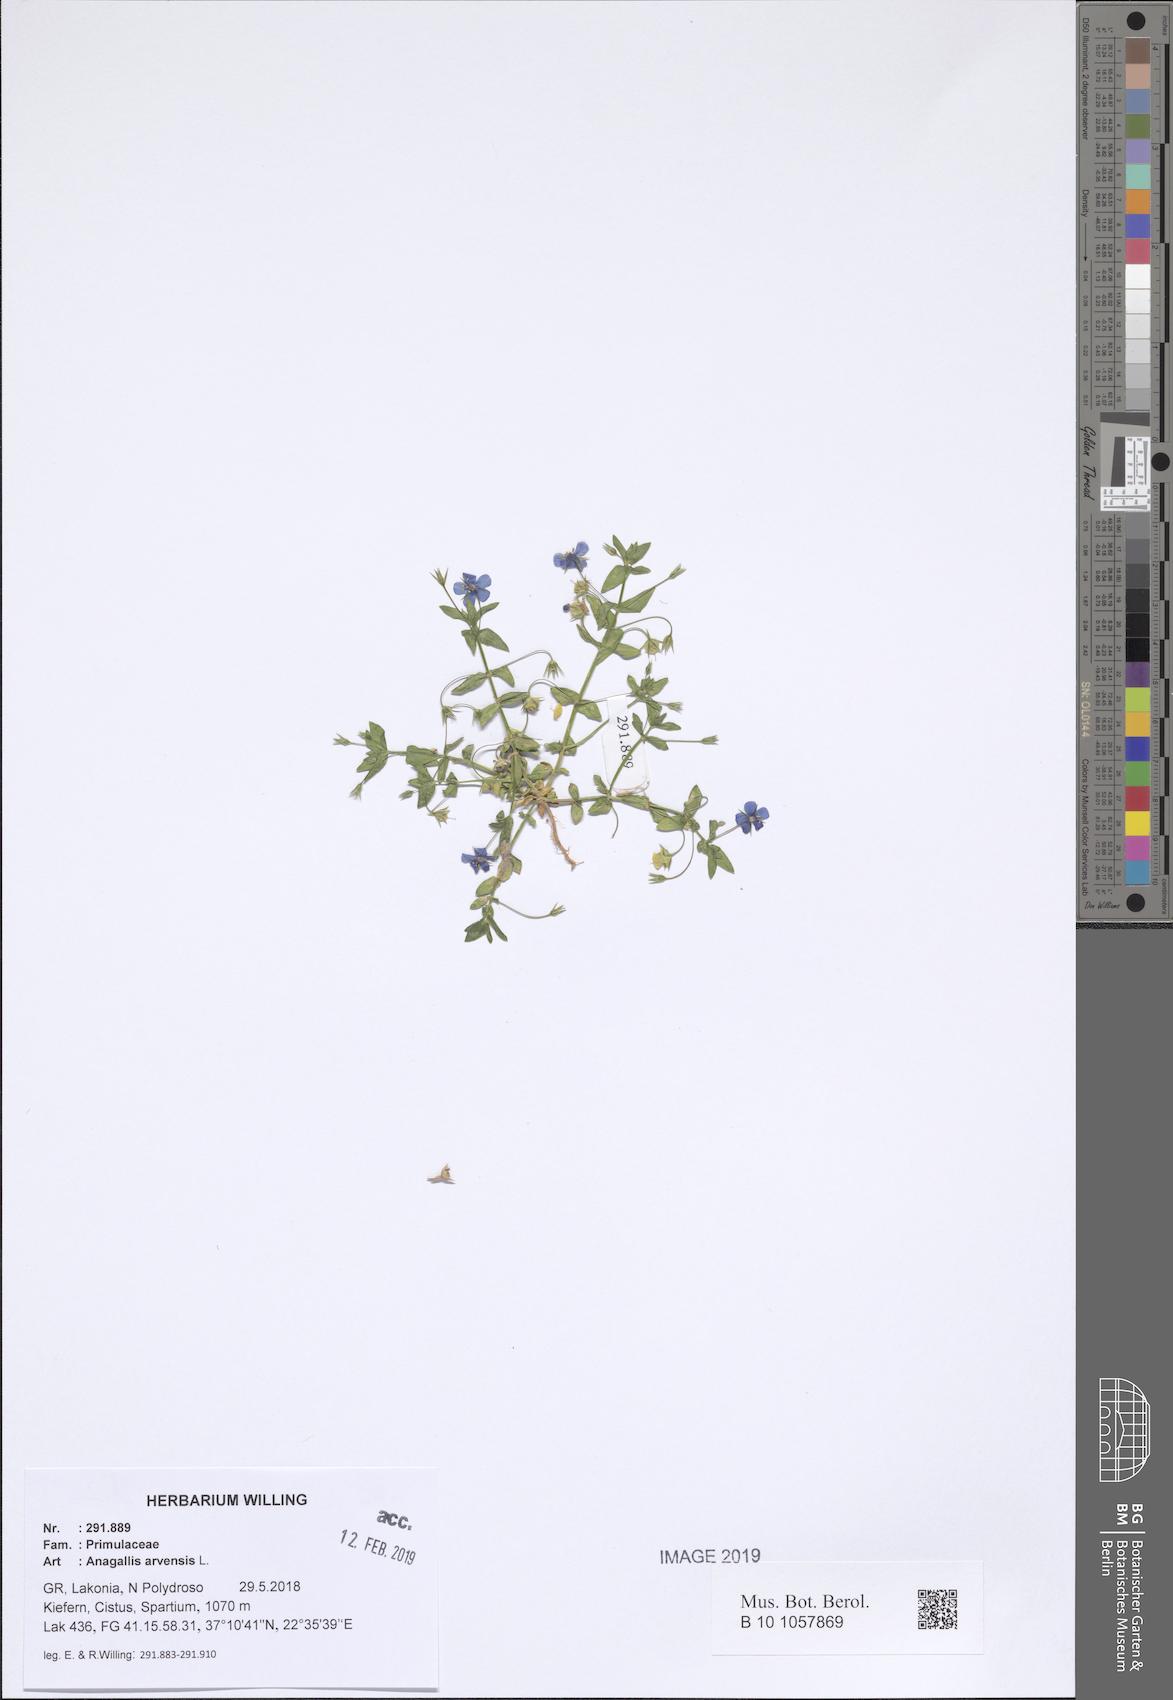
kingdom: Plantae
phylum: Tracheophyta
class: Magnoliopsida
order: Ericales
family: Primulaceae
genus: Lysimachia
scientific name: Lysimachia arvensis
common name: Scarlet pimpernel
